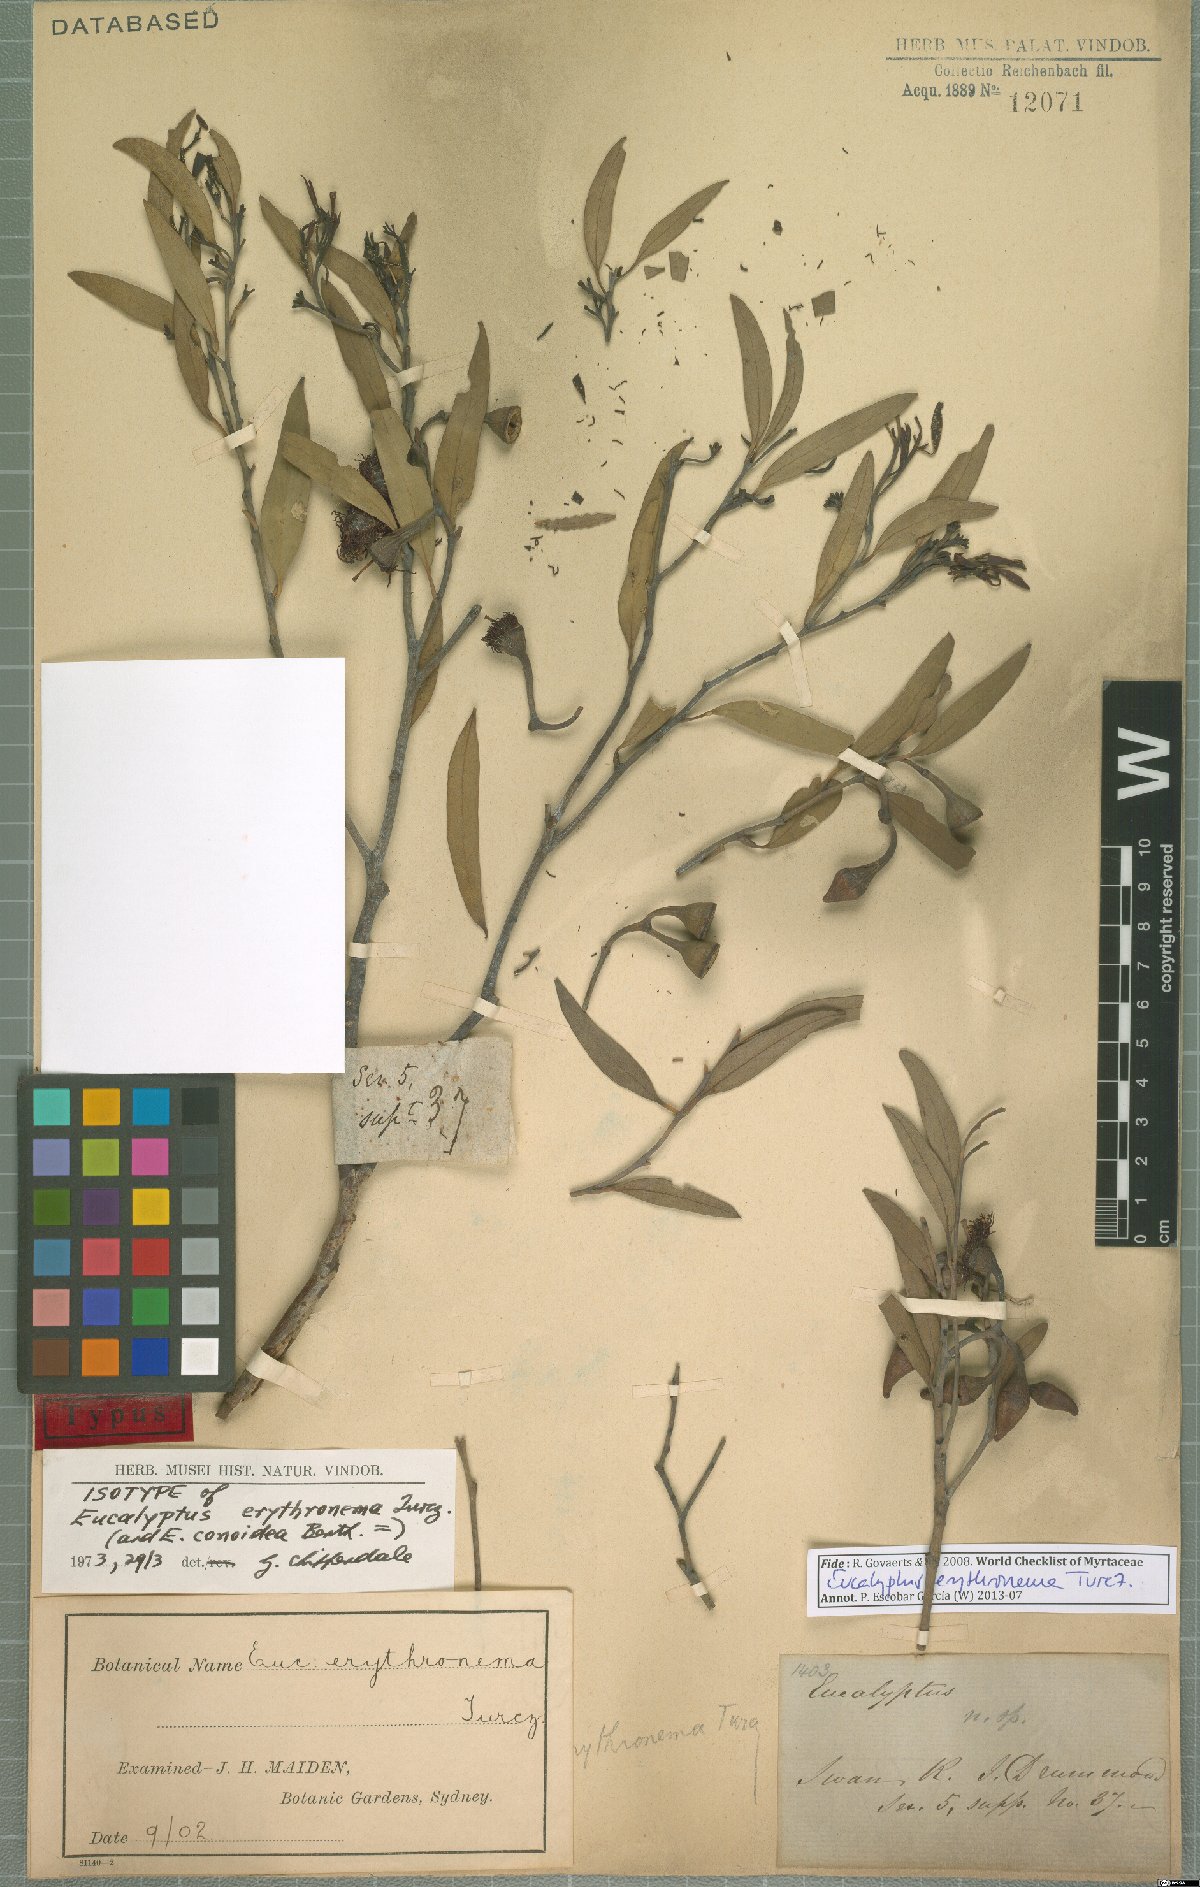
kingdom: Plantae
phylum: Tracheophyta
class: Magnoliopsida
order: Myrtales
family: Myrtaceae
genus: Eucalyptus
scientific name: Eucalyptus erythronema
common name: Red-flowered mallee
